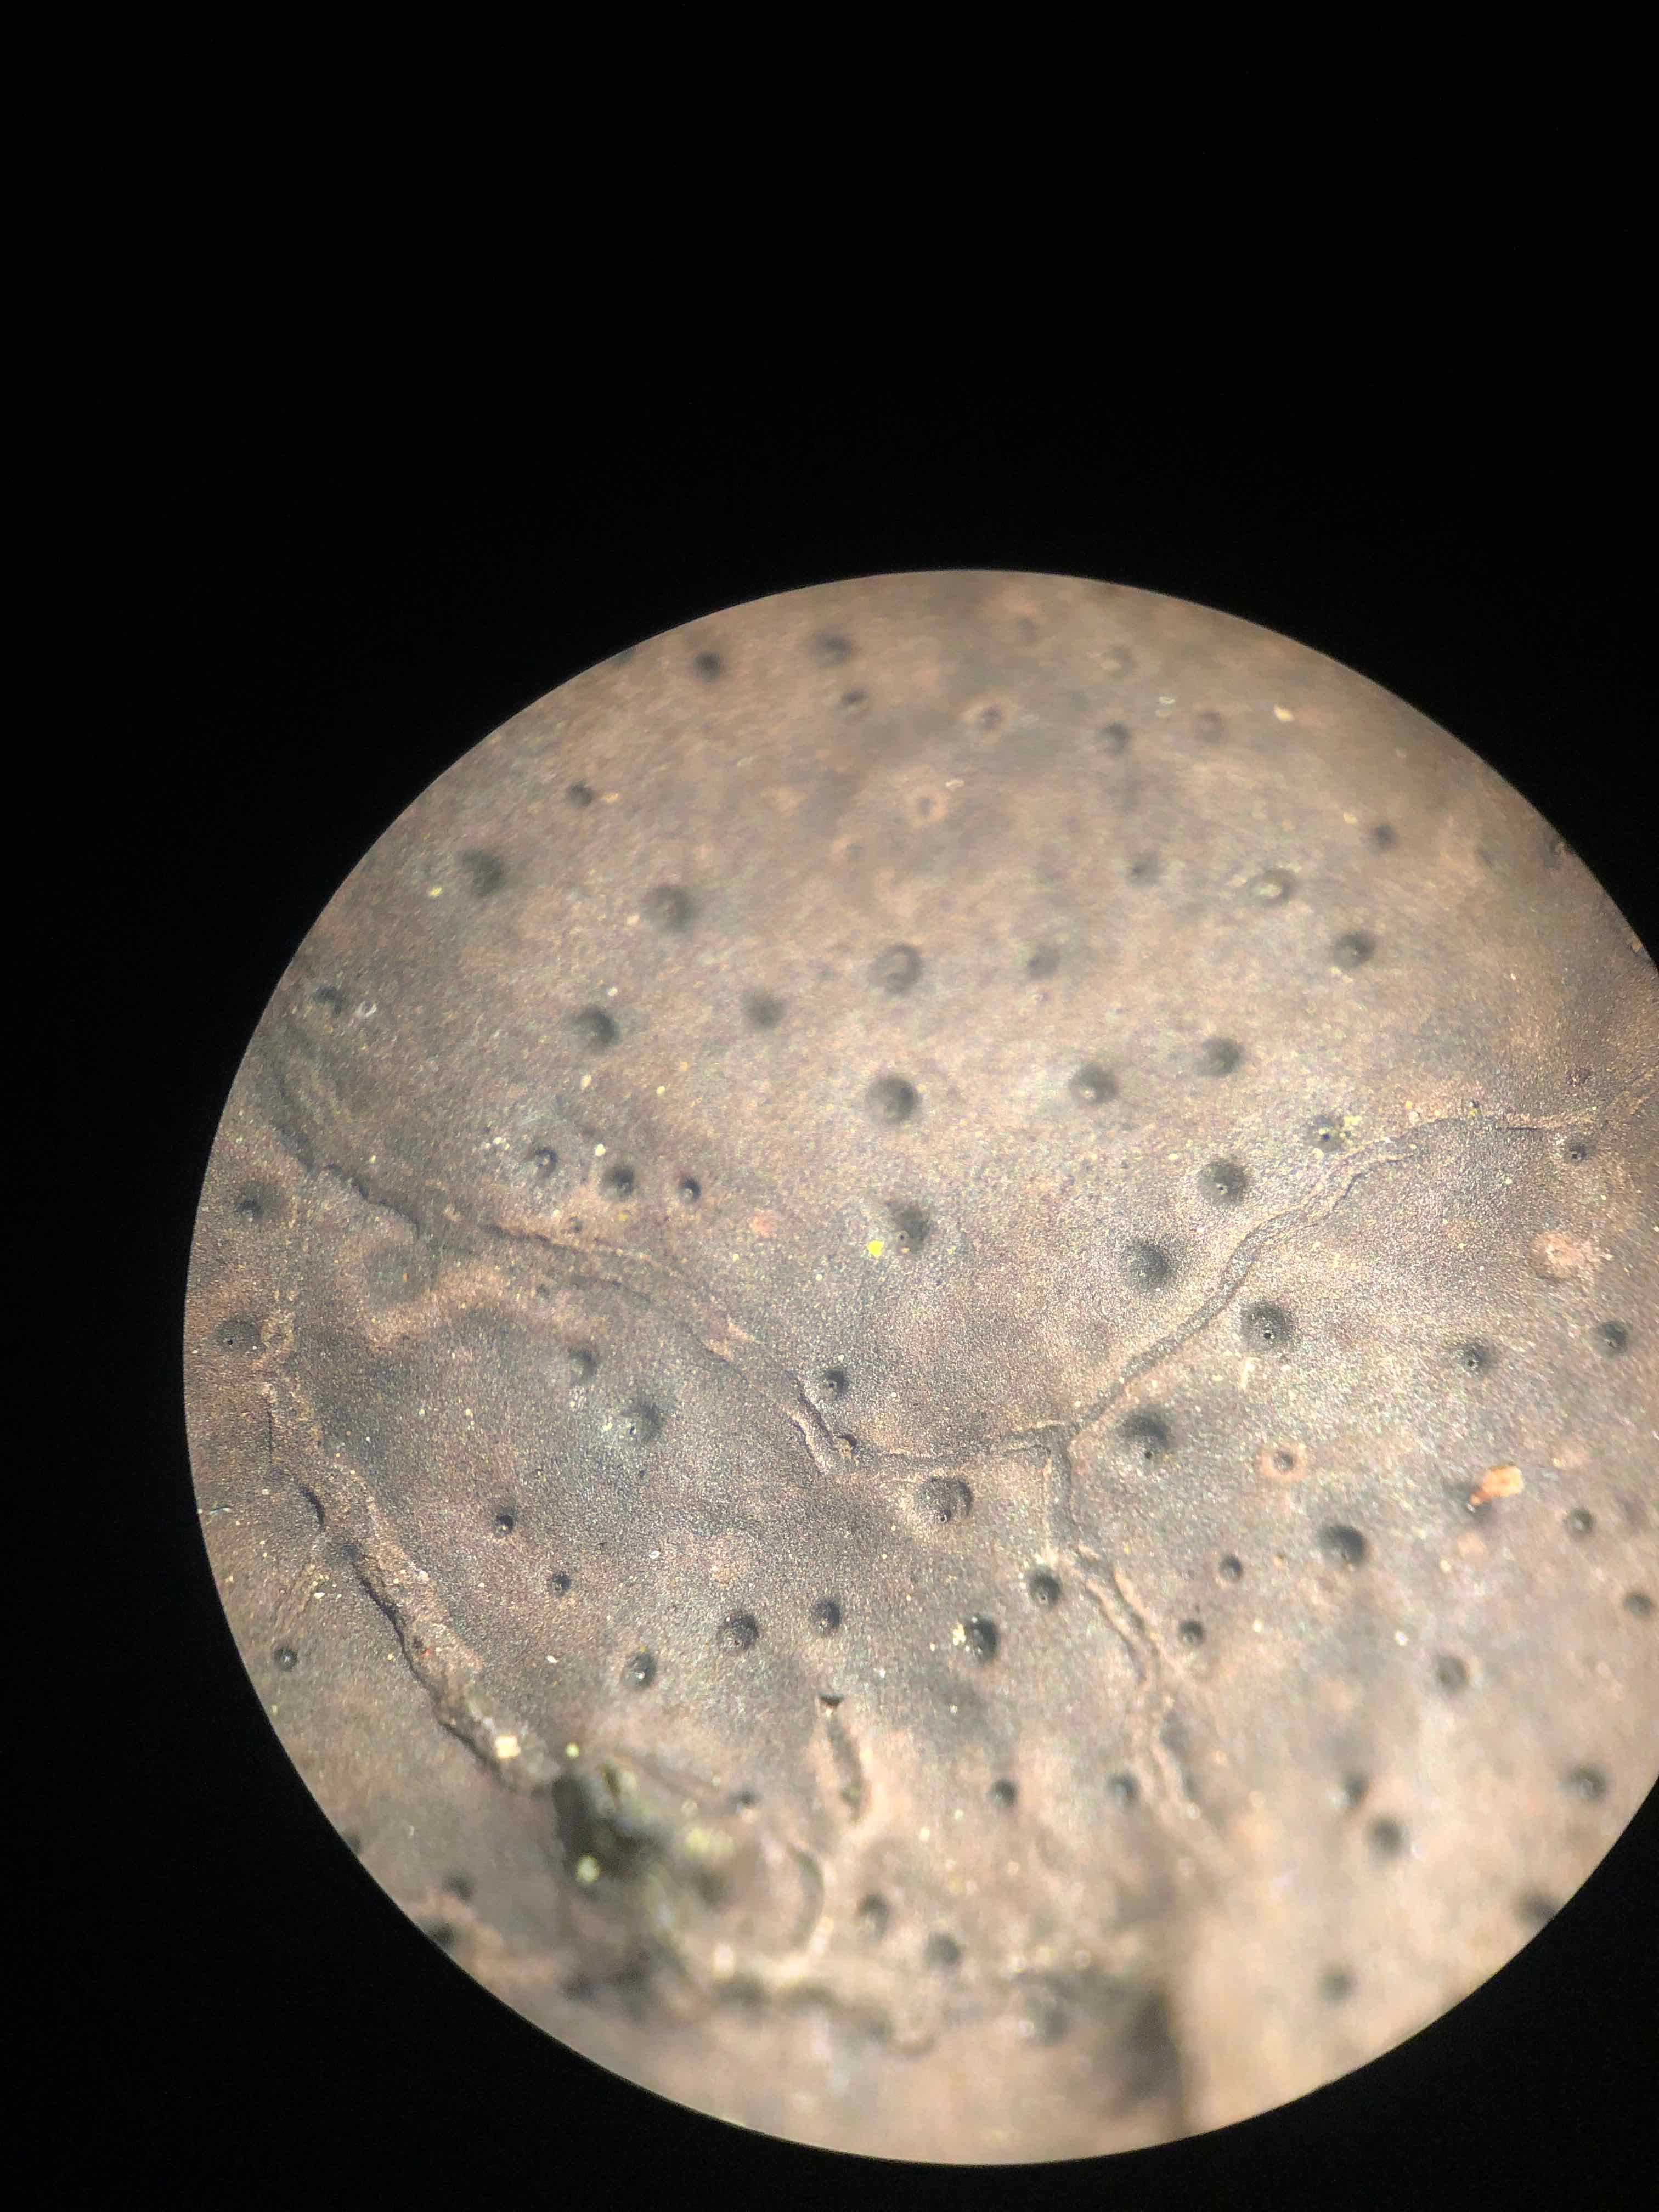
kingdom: Fungi
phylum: Ascomycota
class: Sordariomycetes
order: Xylariales
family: Xylariaceae
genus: Kretzschmaria
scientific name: Kretzschmaria deusta
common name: stor kulsvamp
